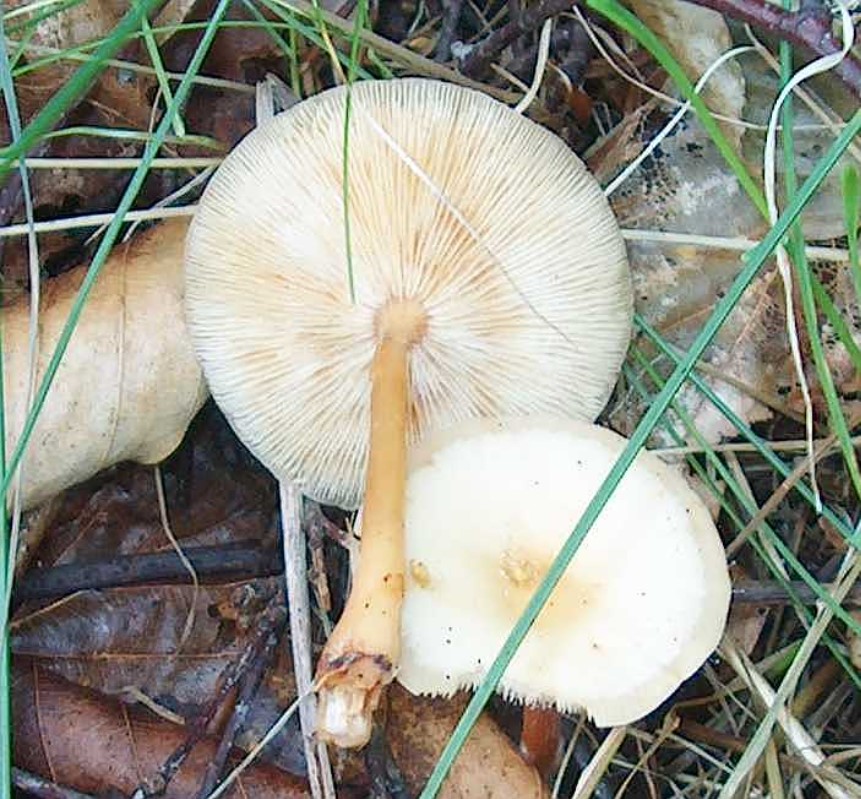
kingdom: Fungi
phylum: Basidiomycota
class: Agaricomycetes
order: Agaricales
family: Omphalotaceae
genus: Gymnopus
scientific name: Gymnopus dryophilus
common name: løv-fladhat
